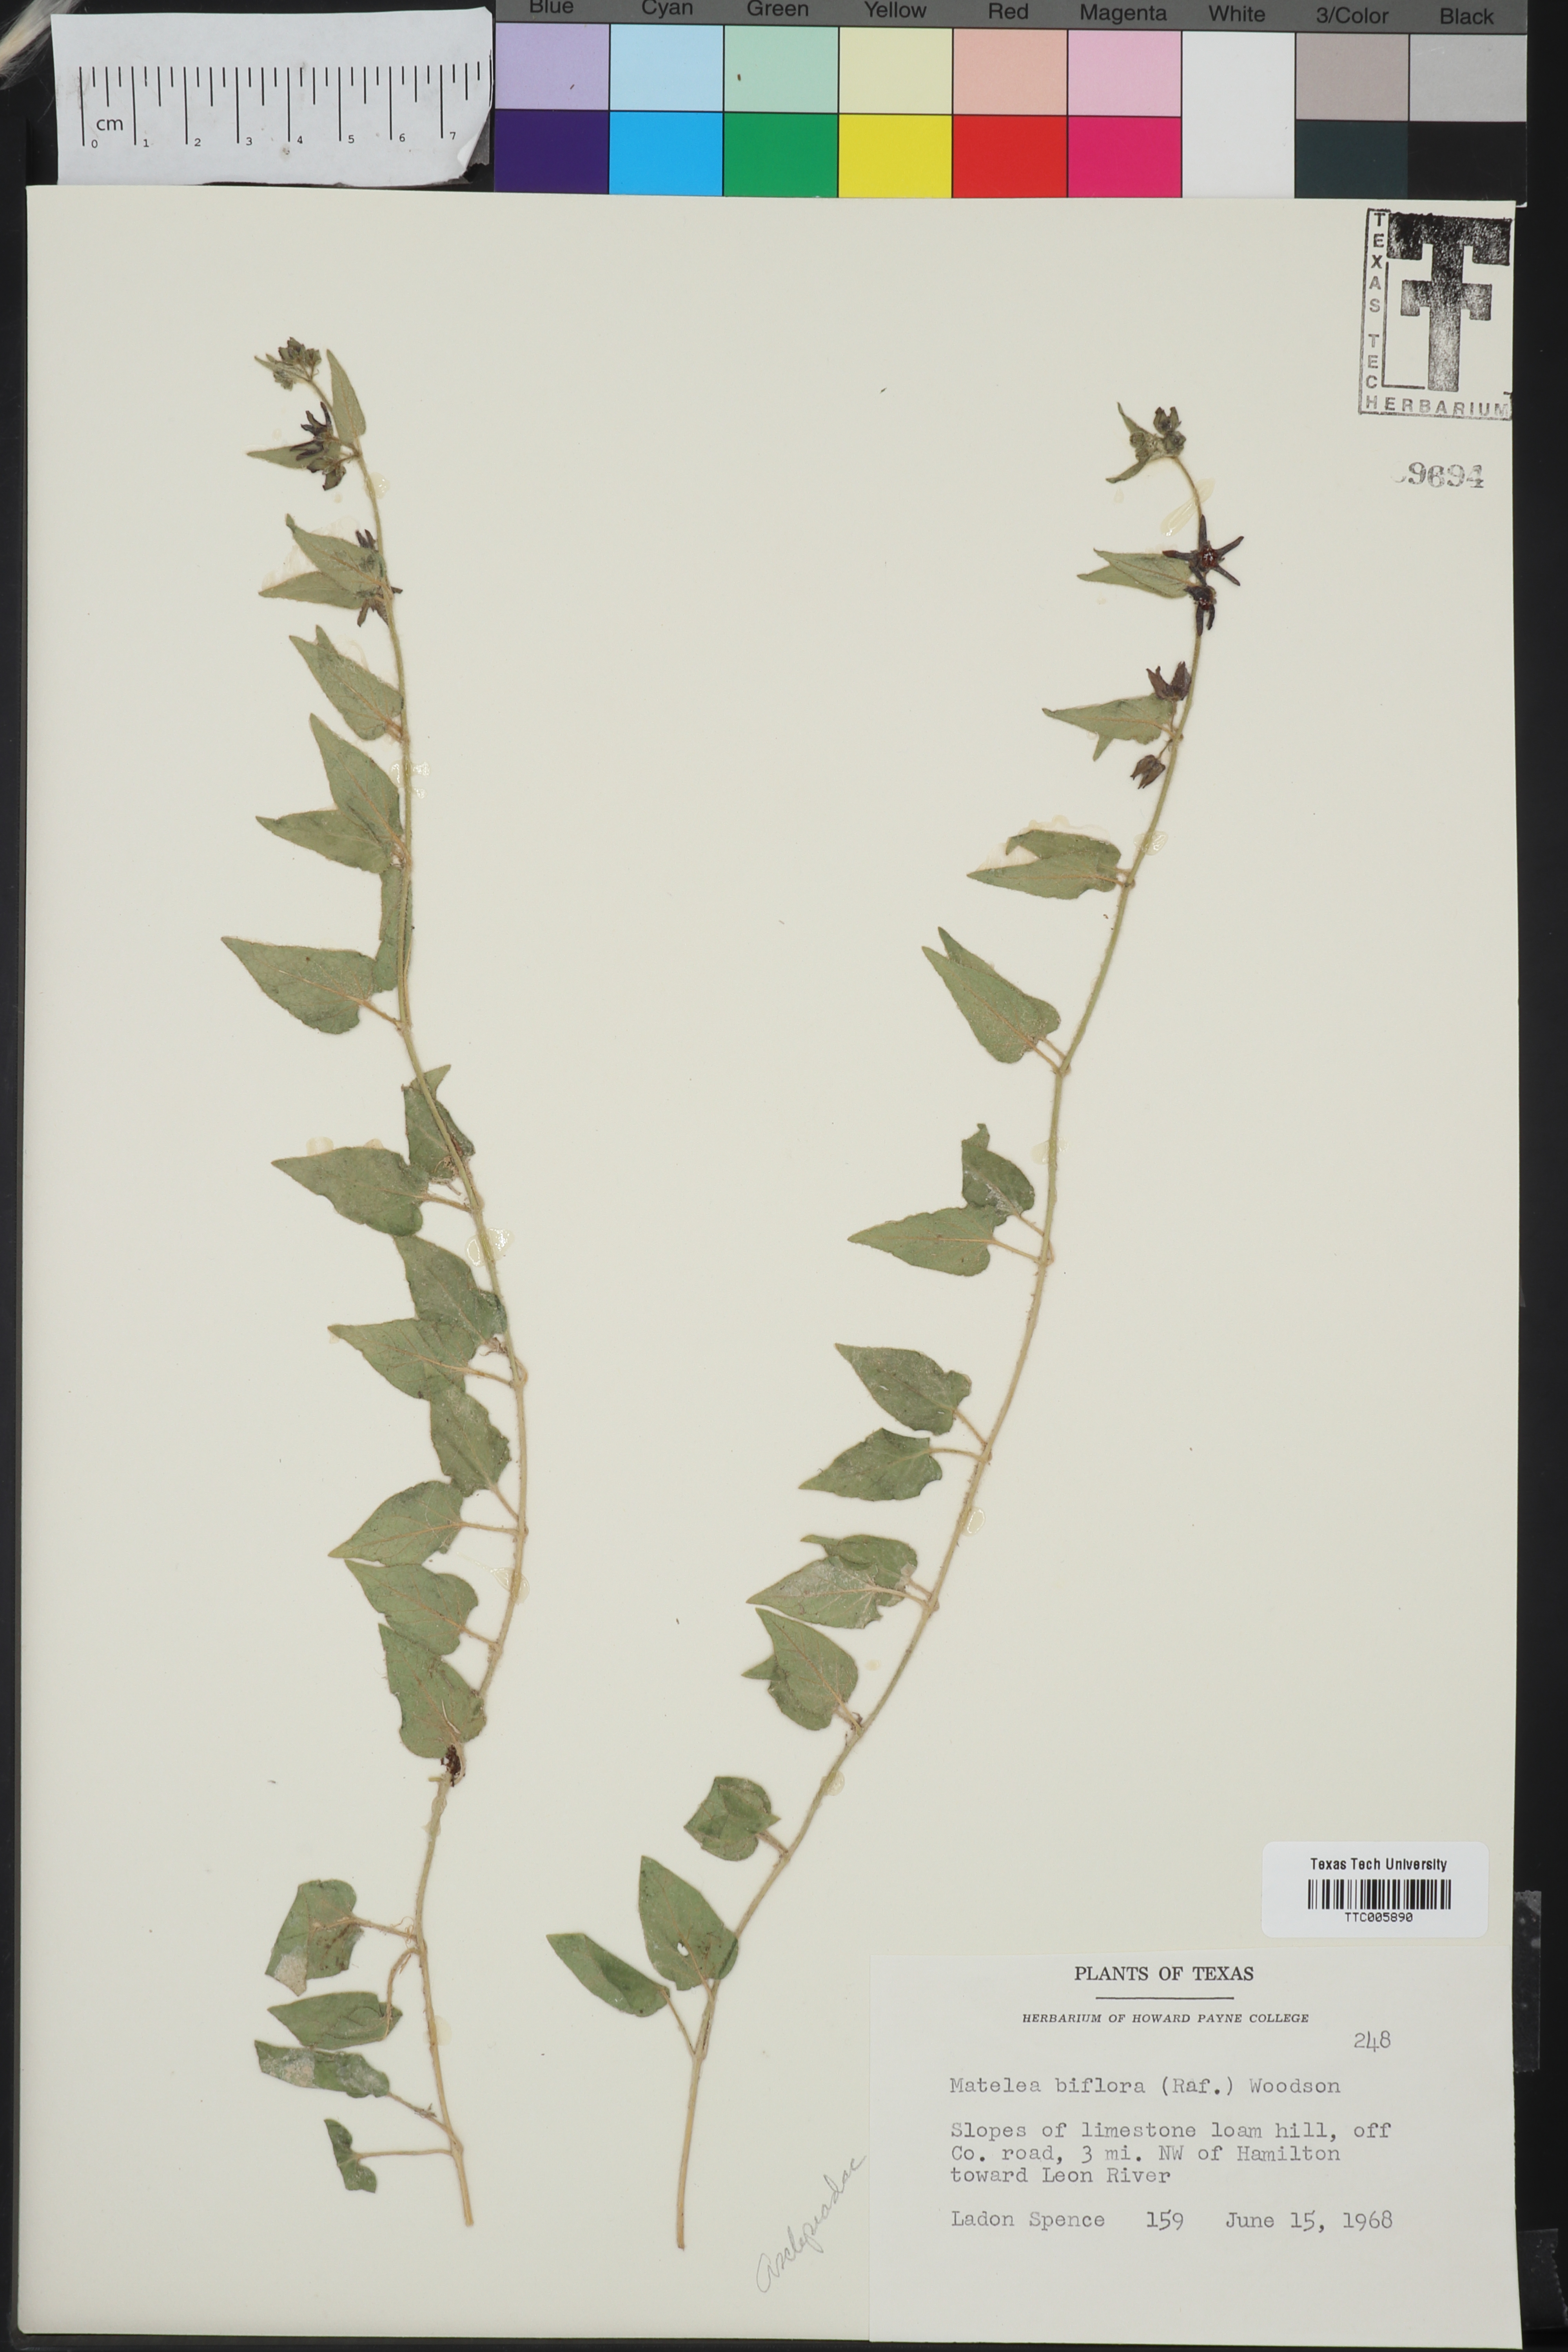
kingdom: Plantae
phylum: Tracheophyta
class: Magnoliopsida
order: Gentianales
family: Apocynaceae
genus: Chthamalia
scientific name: Chthamalia biflora
